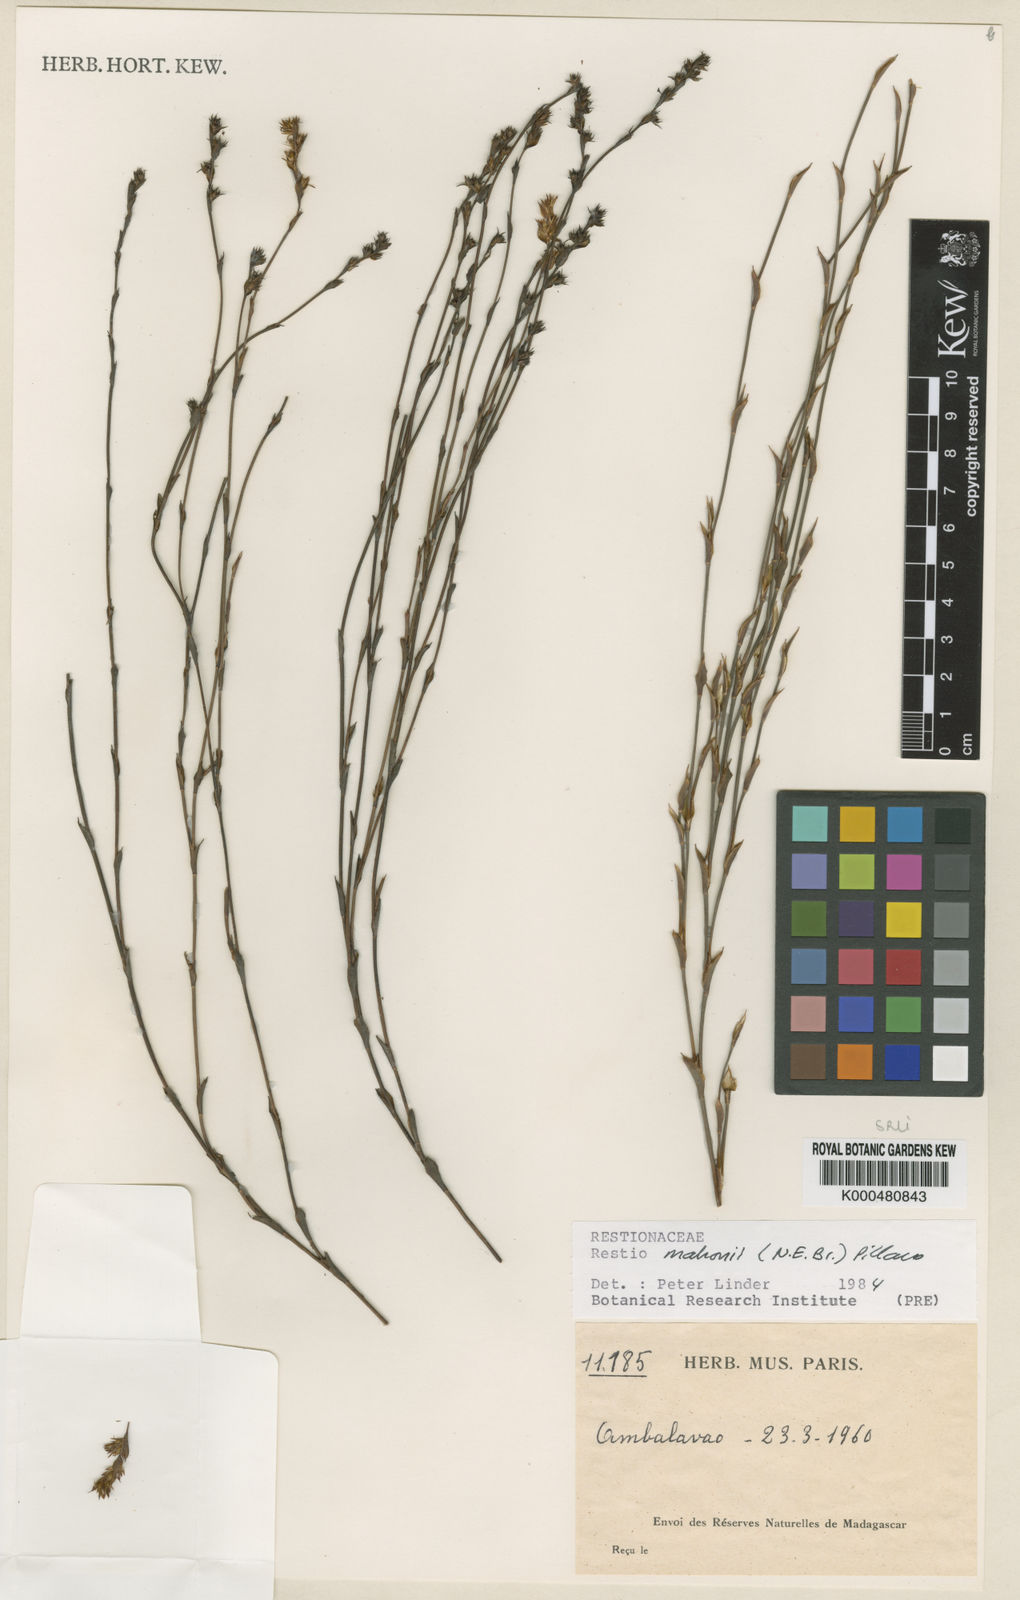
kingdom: Plantae
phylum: Tracheophyta
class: Liliopsida
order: Poales
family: Restionaceae
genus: Platycaulos
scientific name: Platycaulos mahonii
